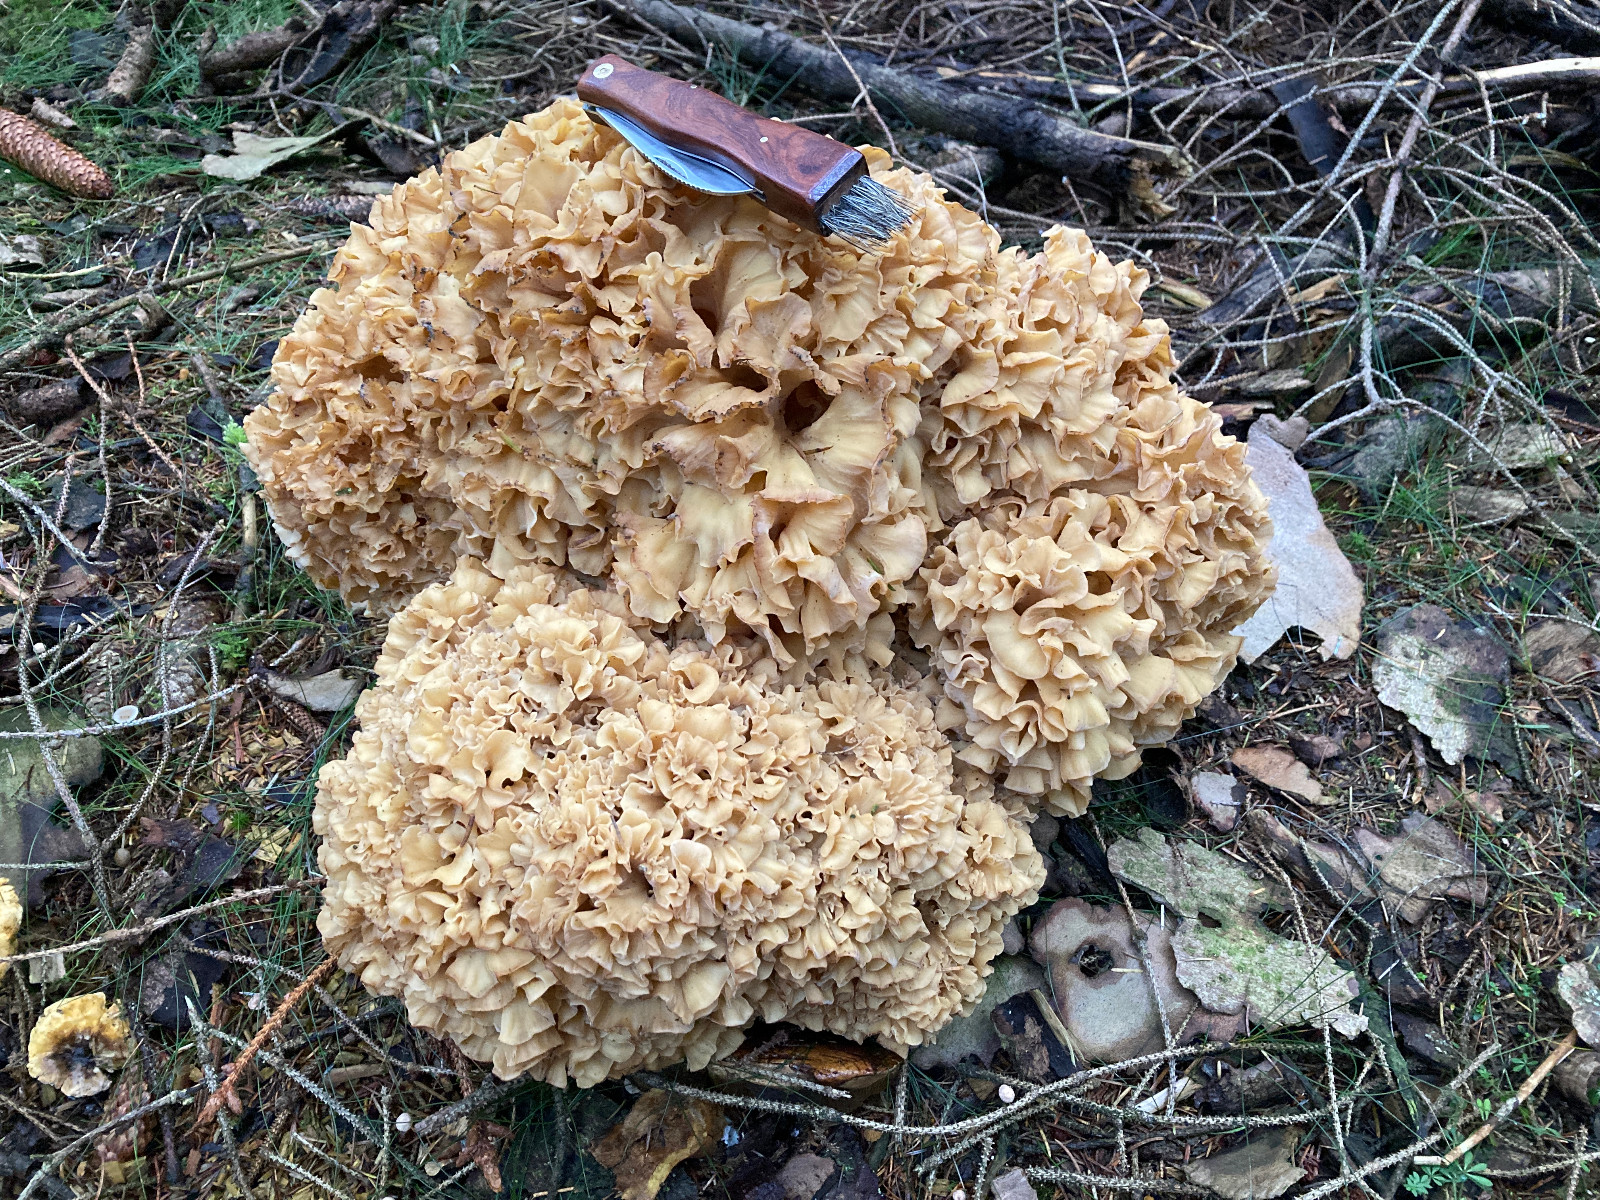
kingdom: Fungi
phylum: Basidiomycota
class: Agaricomycetes
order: Polyporales
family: Sparassidaceae
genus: Sparassis
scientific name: Sparassis crispa
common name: kruset blomkålssvamp
